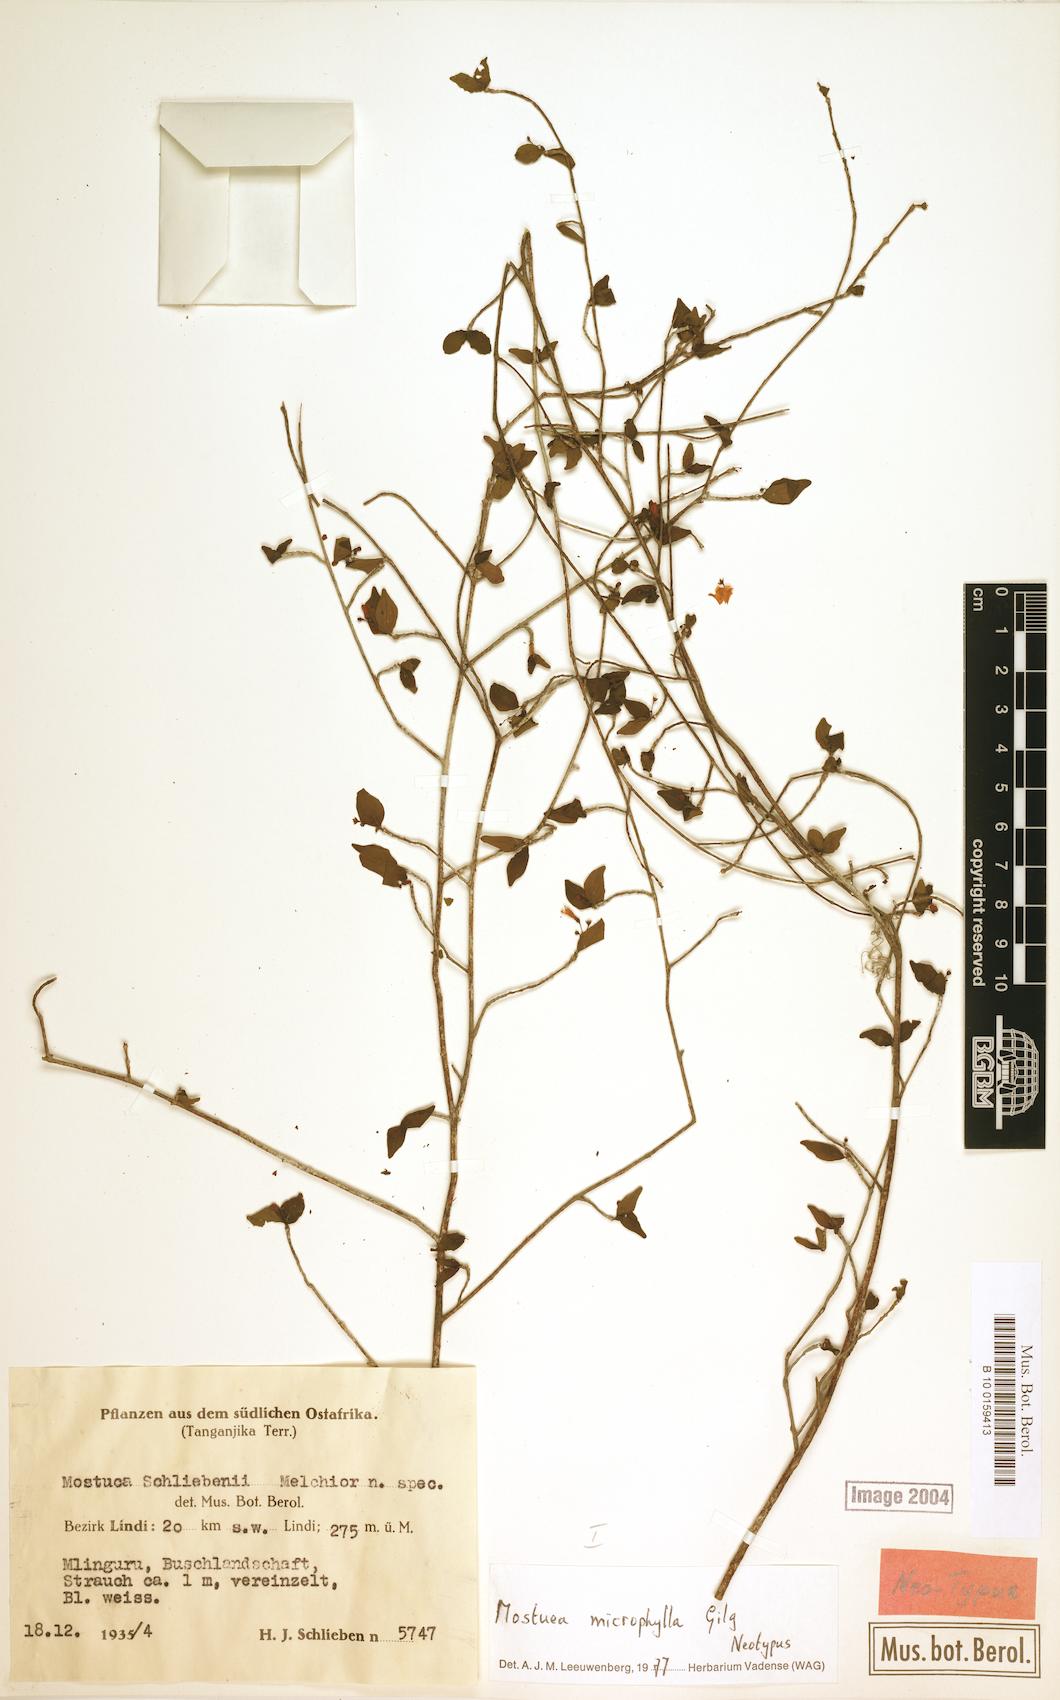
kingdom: Plantae
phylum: Tracheophyta
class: Magnoliopsida
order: Gentianales
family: Gelsemiaceae
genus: Mostuea
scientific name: Mostuea microphylla
